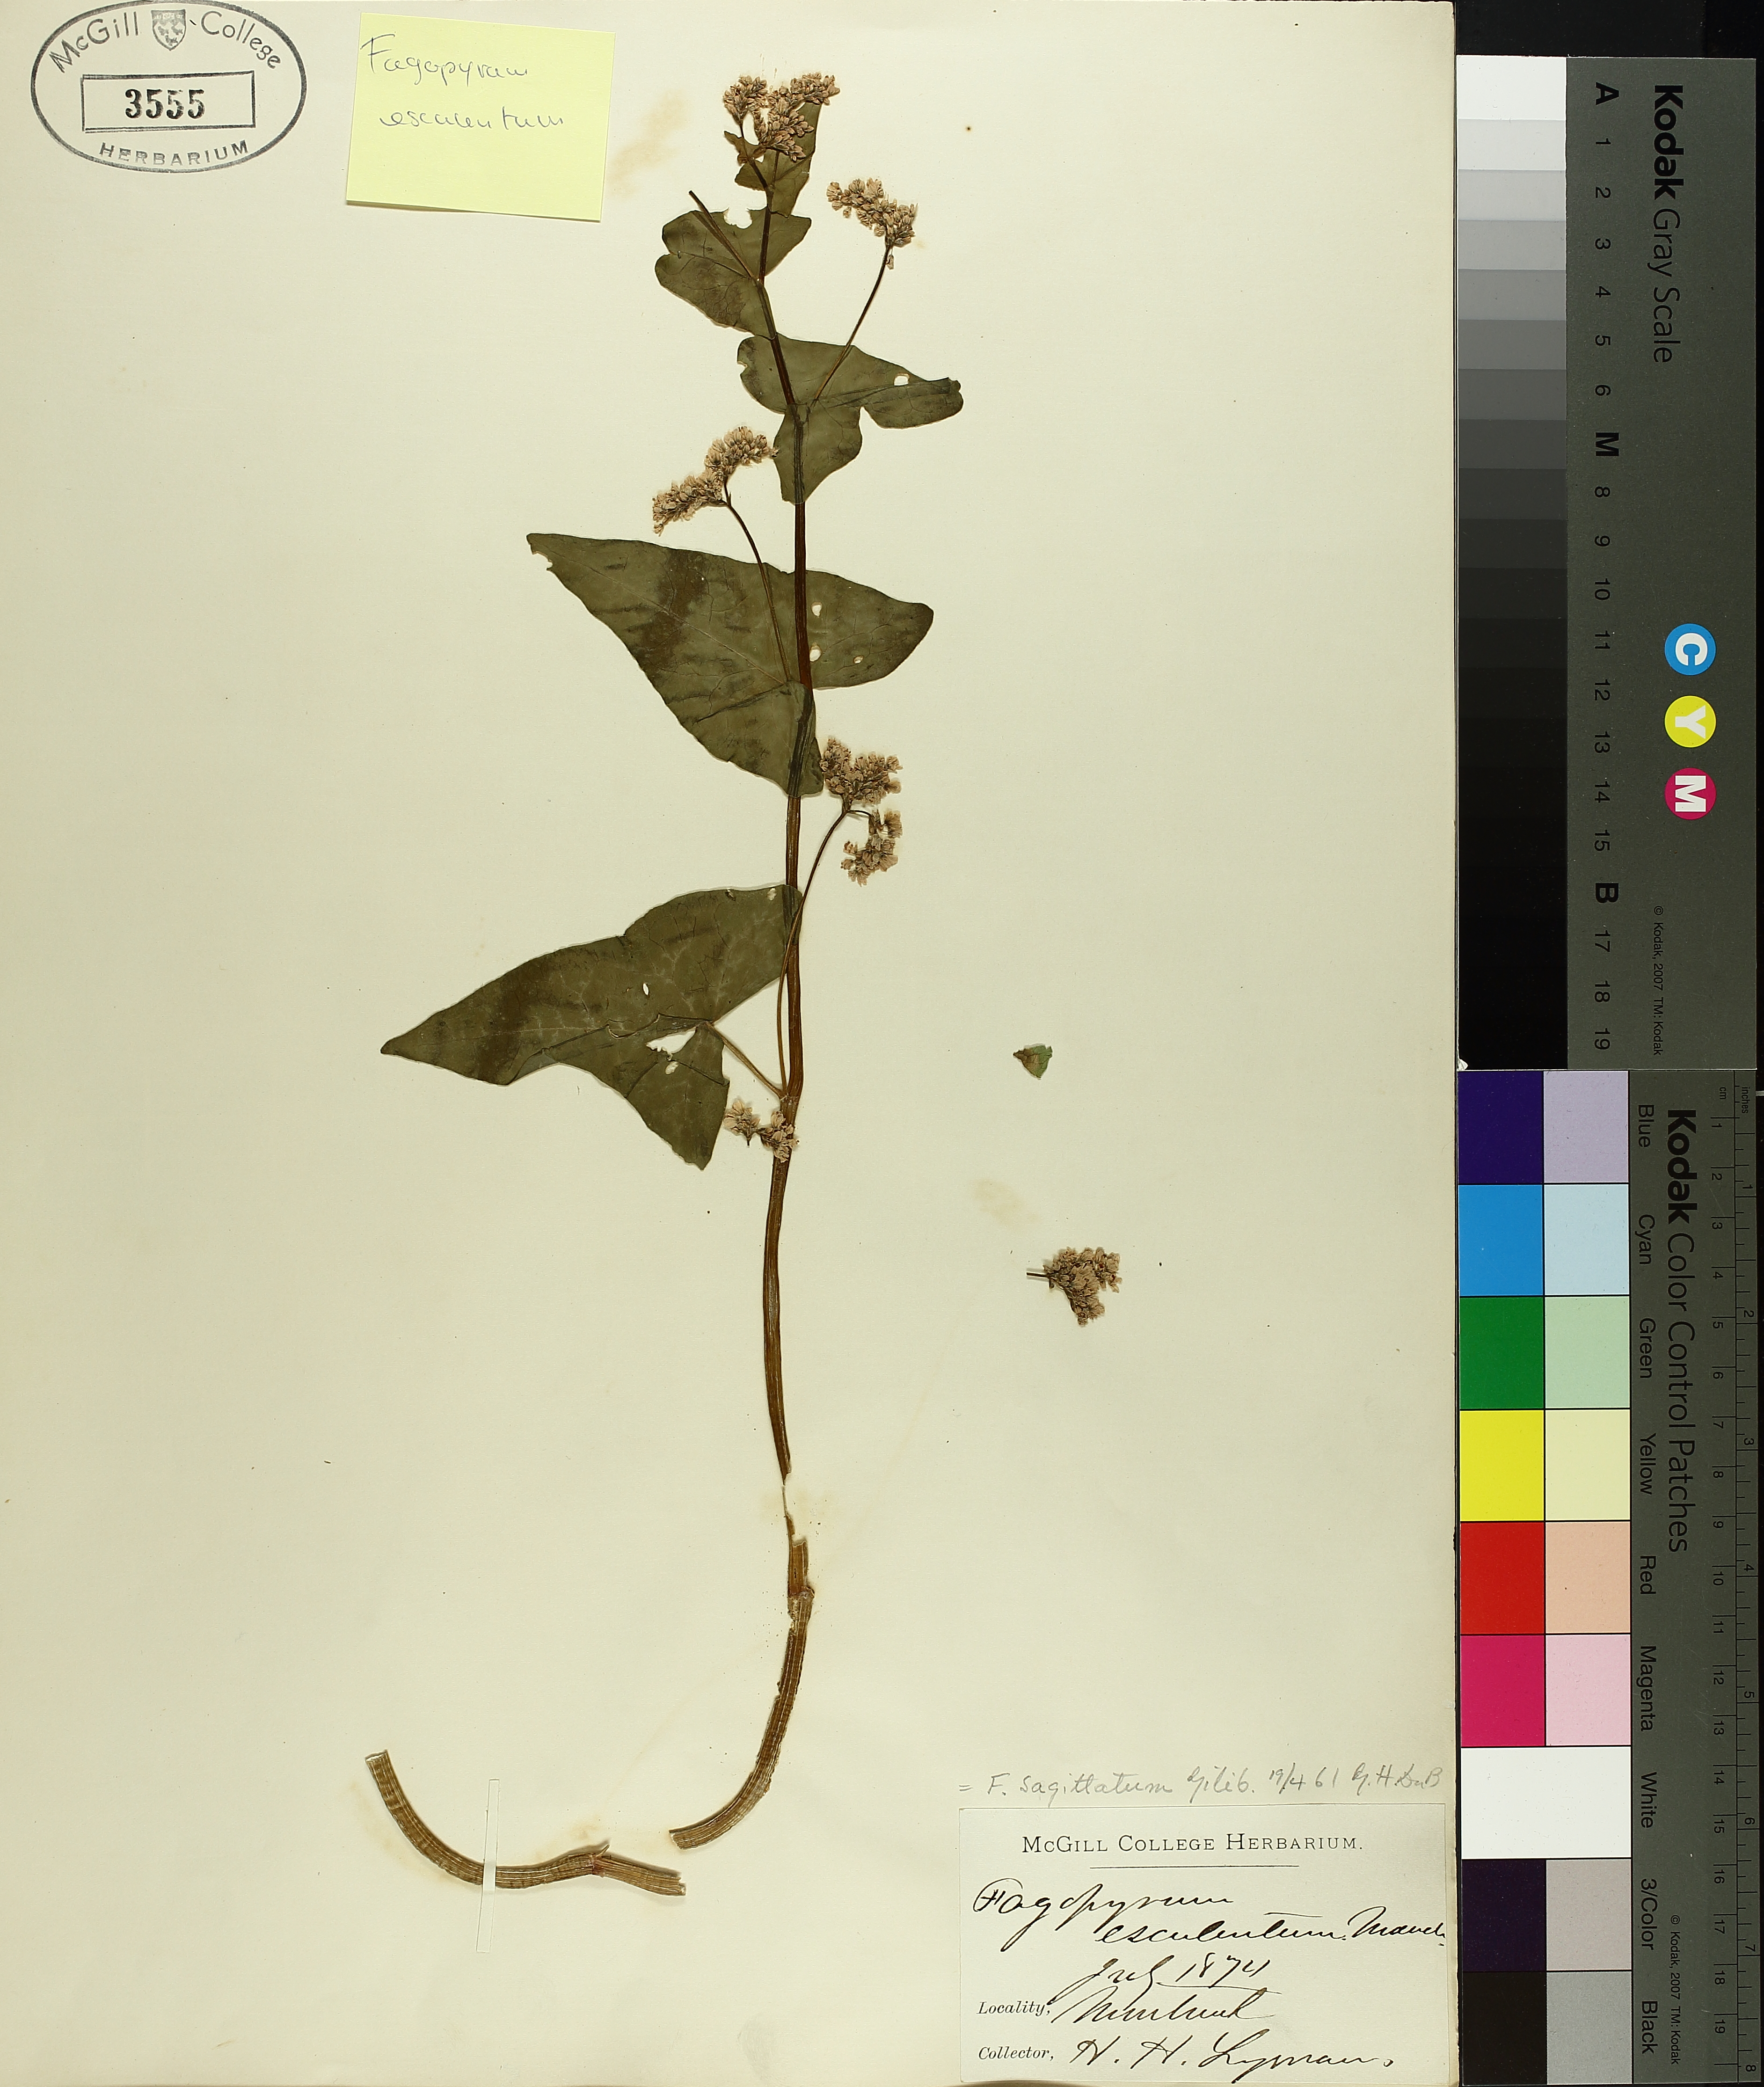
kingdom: Plantae
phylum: Tracheophyta
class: Magnoliopsida
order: Caryophyllales
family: Polygonaceae
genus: Fagopyrum
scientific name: Fagopyrum esculentum
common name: Buckwheat
